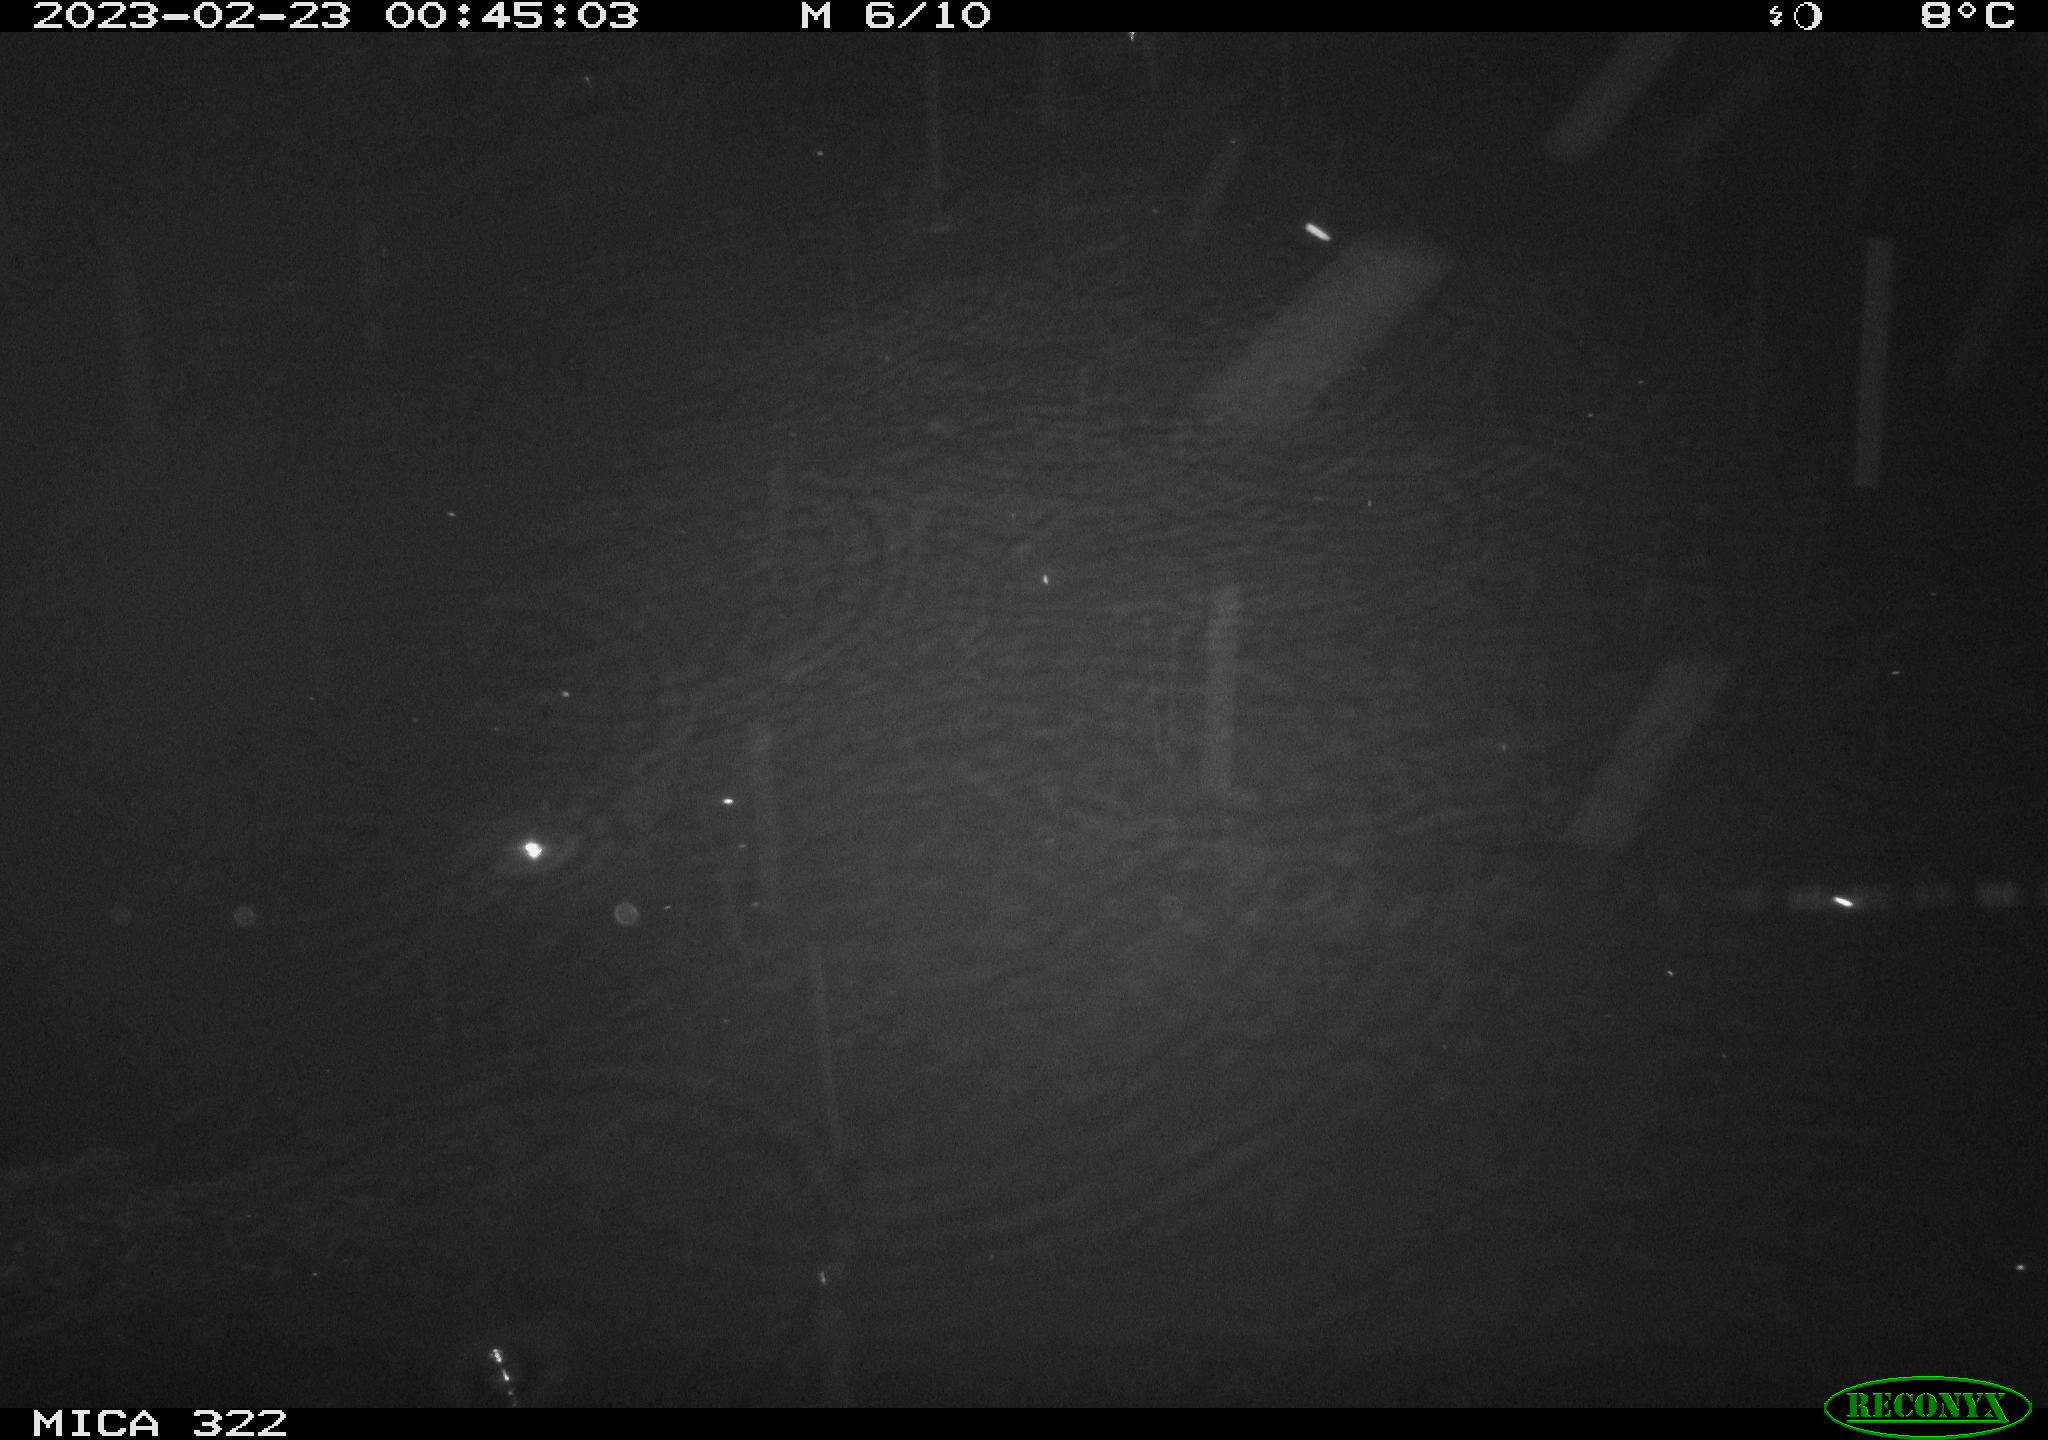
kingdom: Animalia
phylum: Chordata
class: Mammalia
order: Rodentia
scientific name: Rodentia
